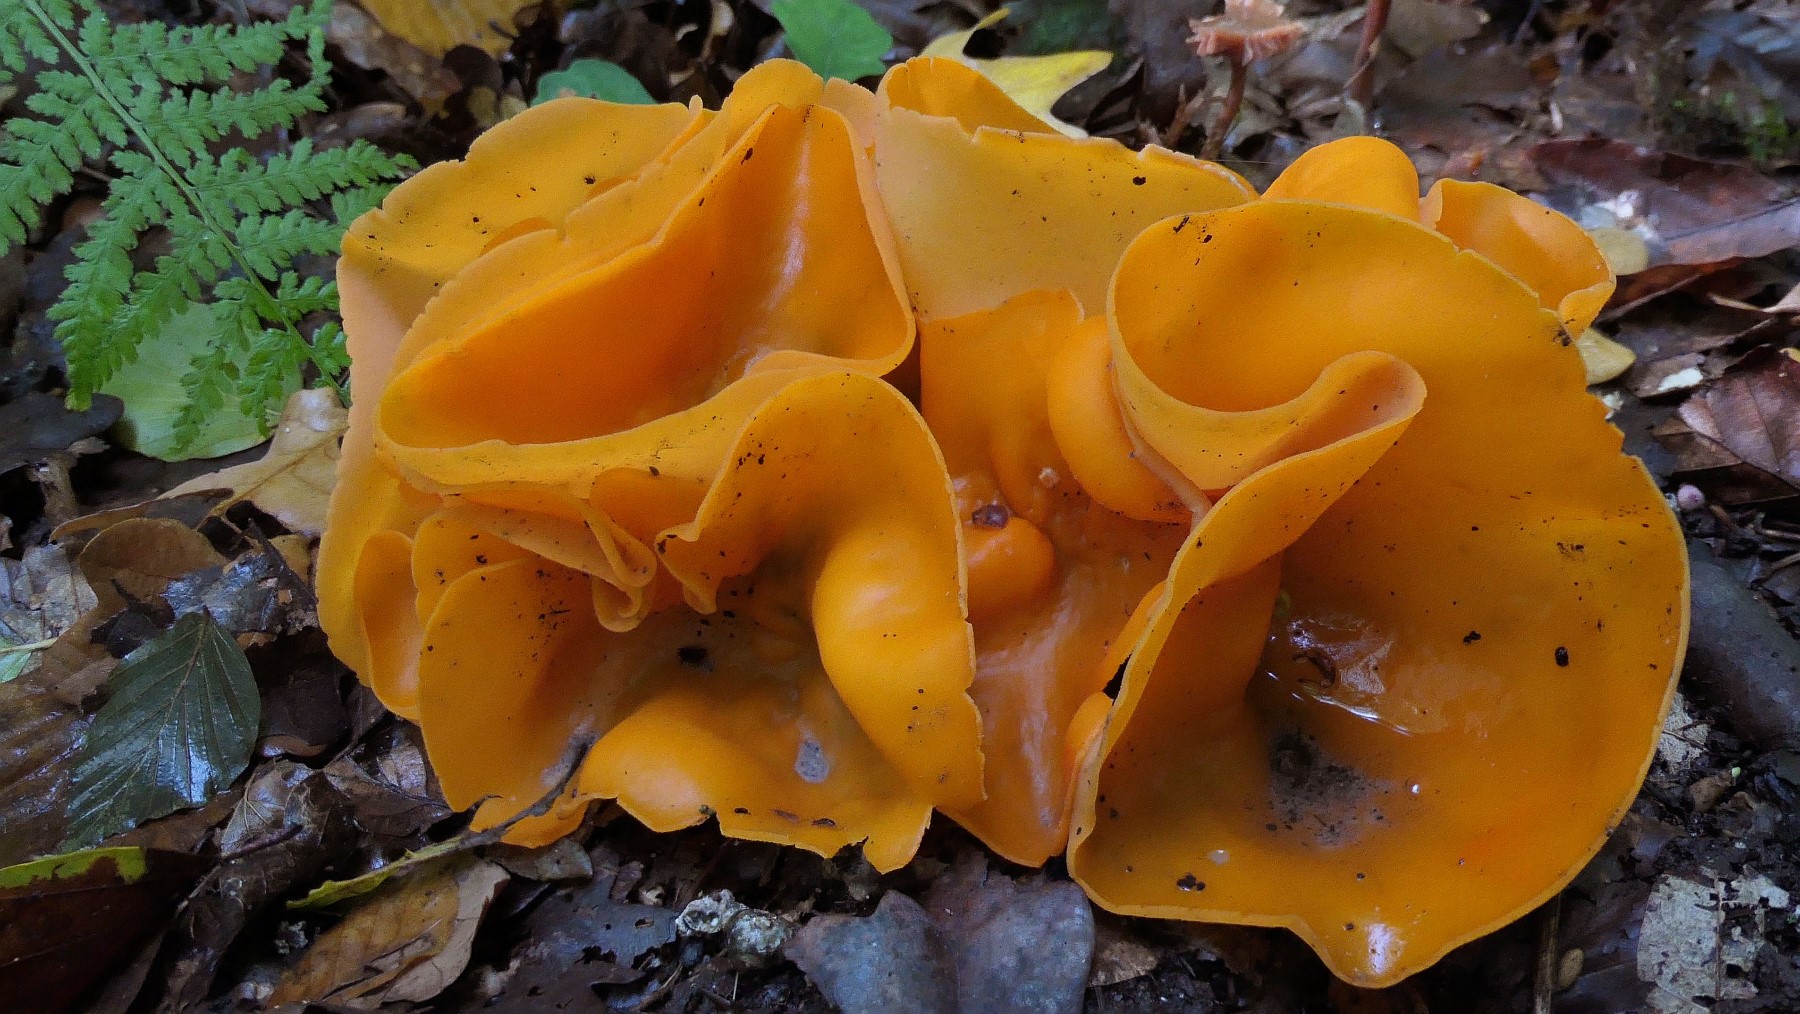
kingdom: Fungi
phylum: Ascomycota
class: Pezizomycetes
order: Pezizales
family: Pyronemataceae
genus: Aleuria
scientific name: Aleuria aurantia
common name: almindelig orangebæger
